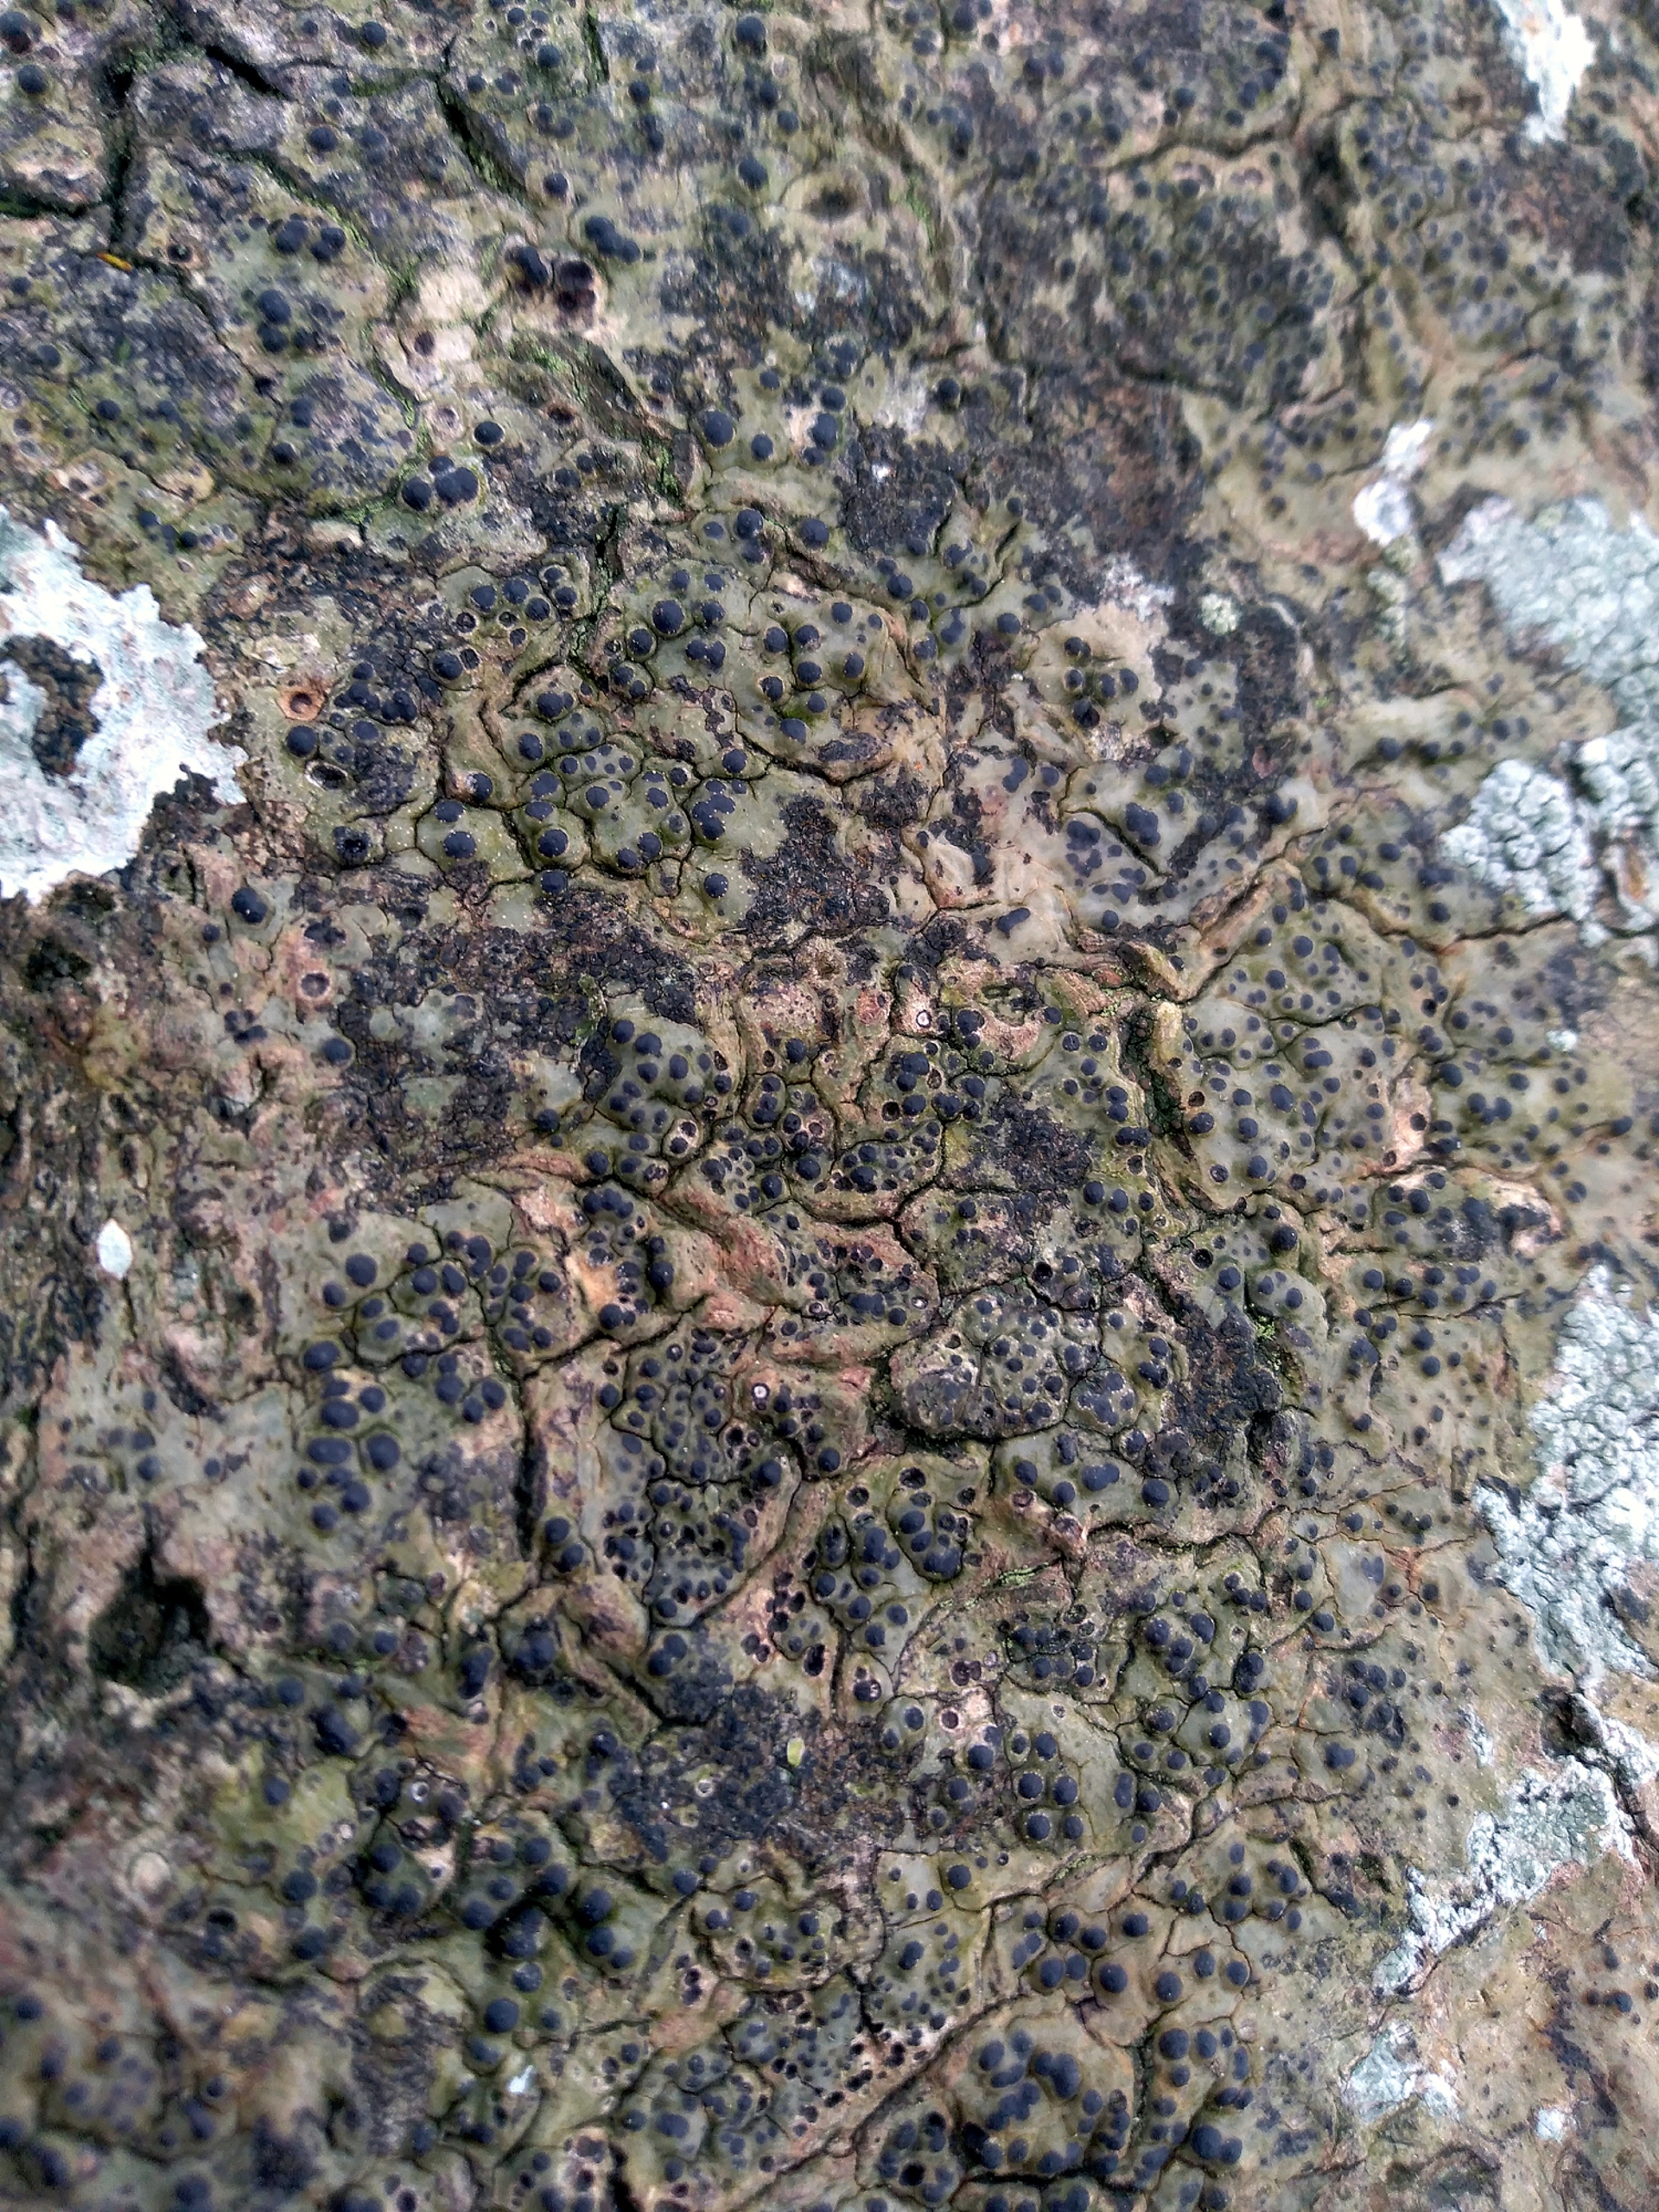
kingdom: Fungi
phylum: Ascomycota
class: Eurotiomycetes
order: Pyrenulales
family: Pyrenulaceae
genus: Pyrenula
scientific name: Pyrenula nitida
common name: Glinsende kernelav
